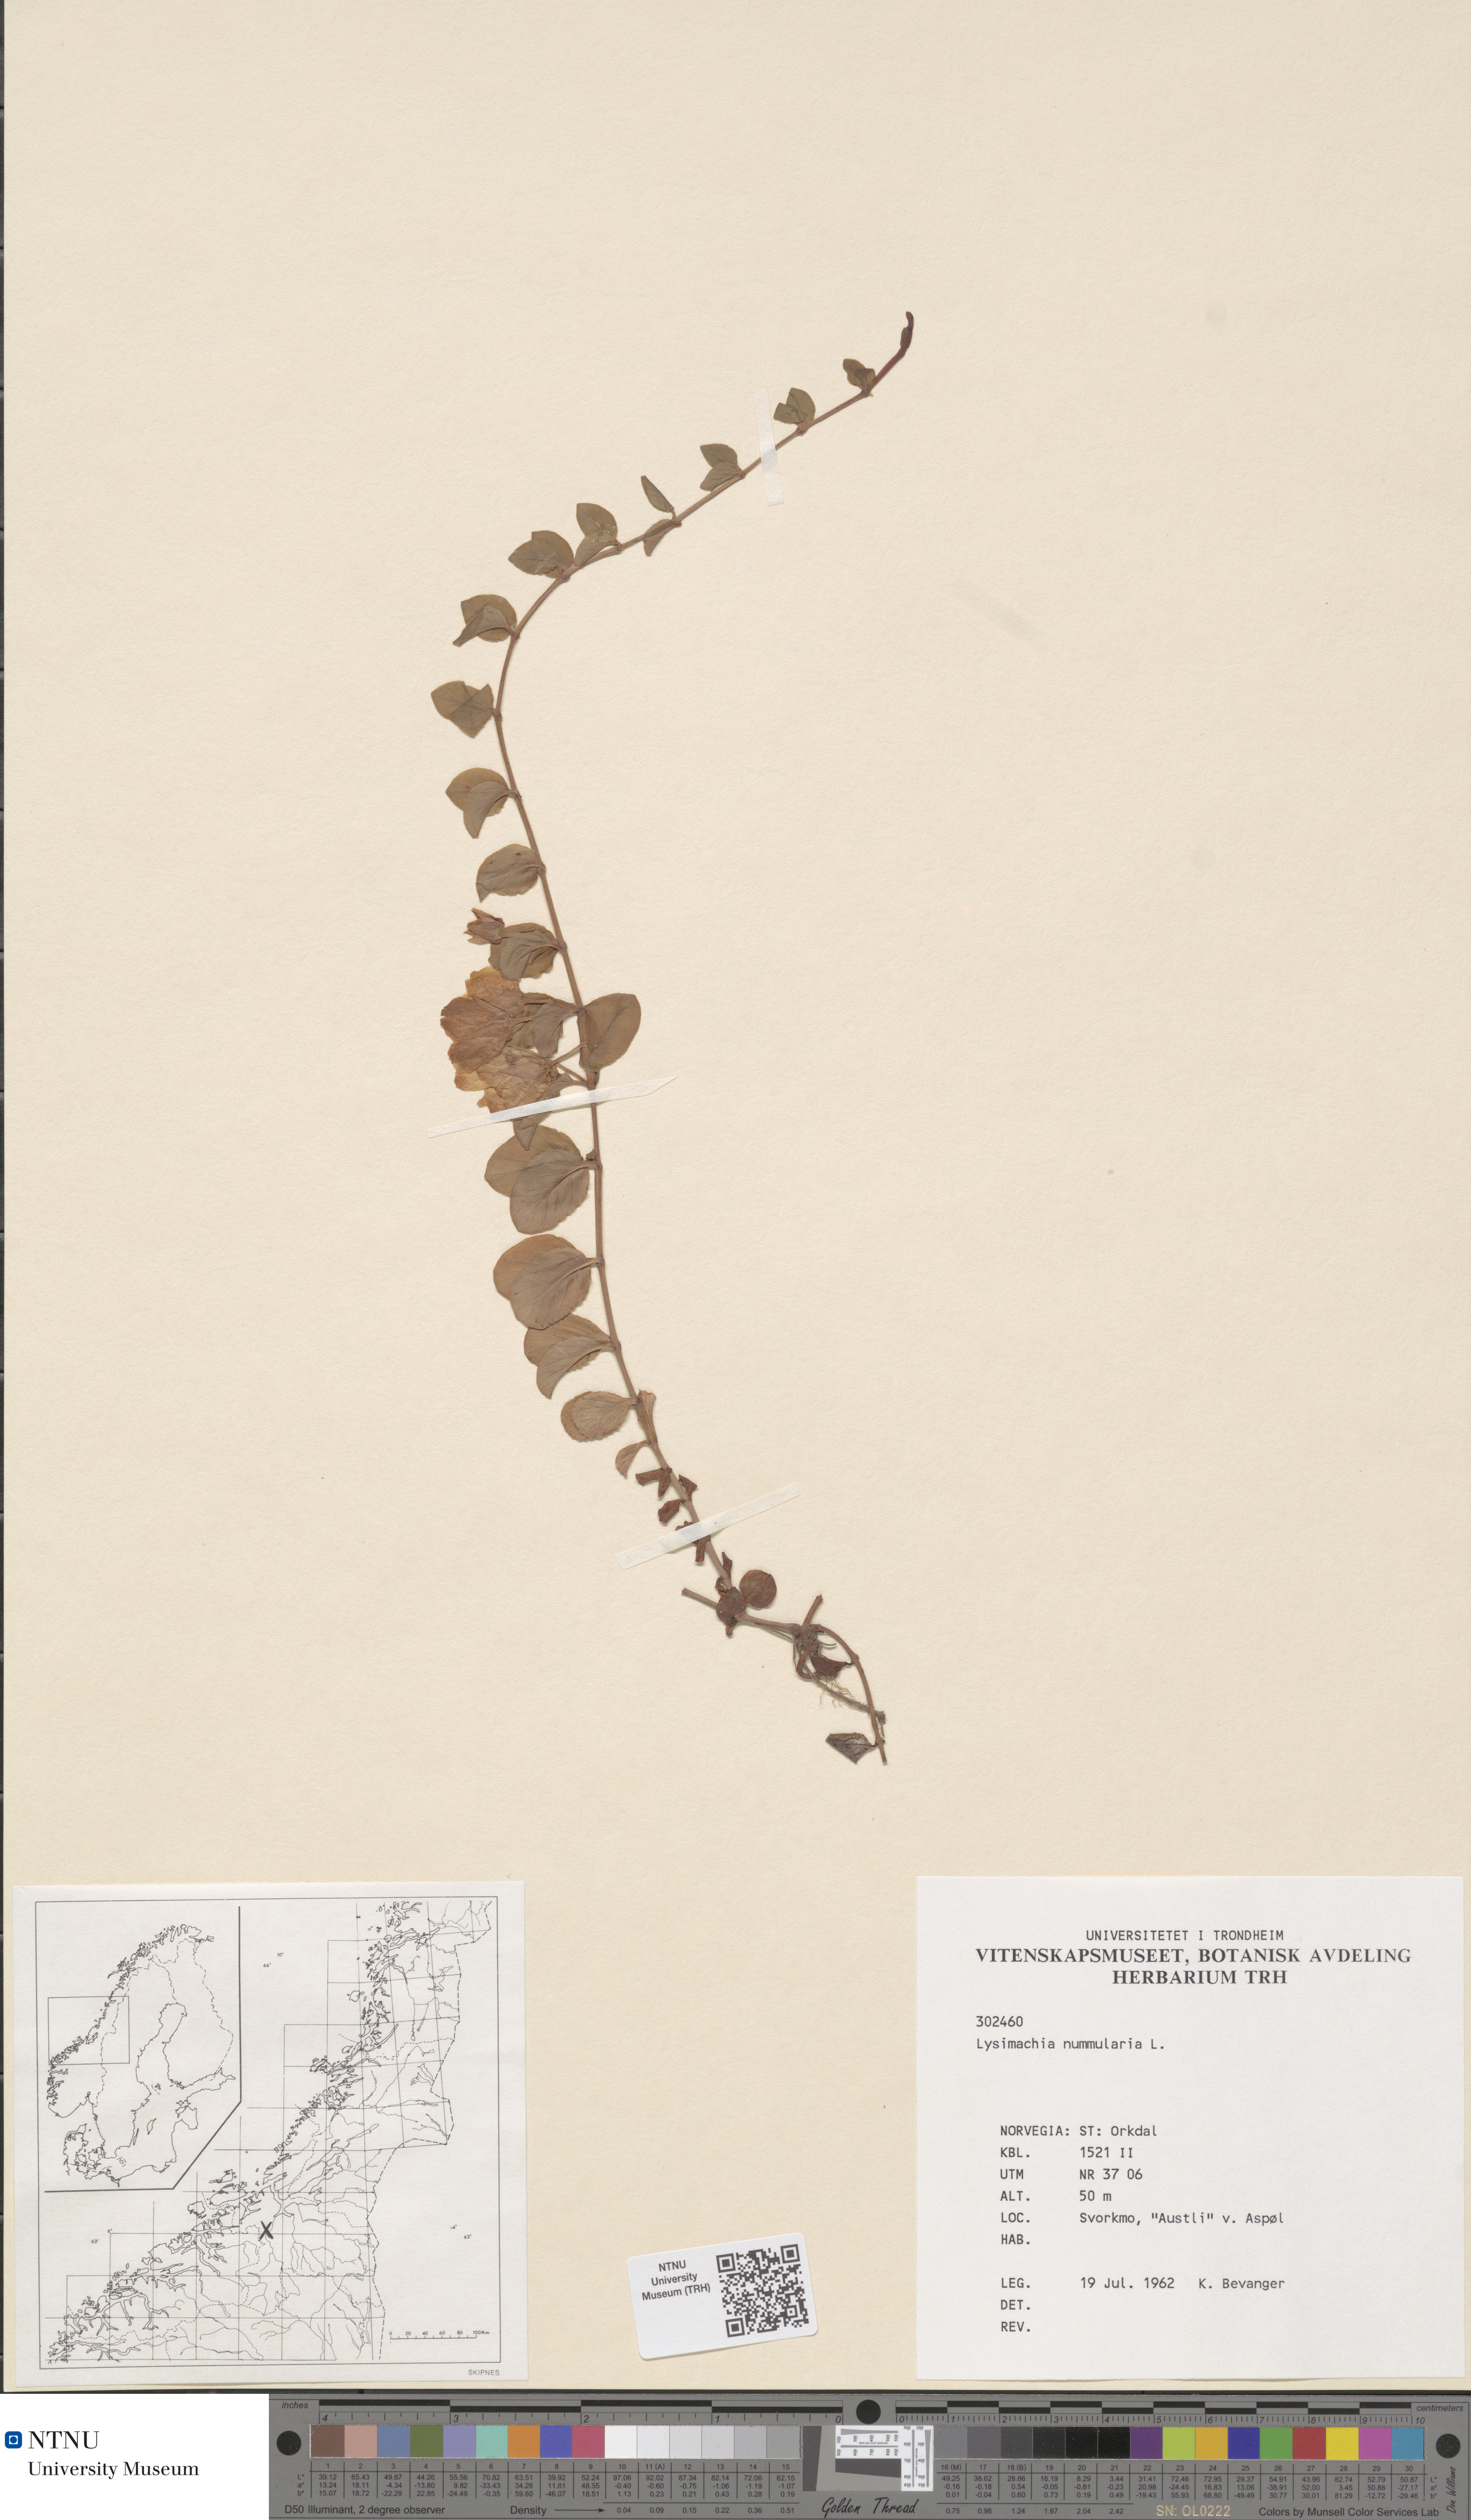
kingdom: Plantae
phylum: Tracheophyta
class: Magnoliopsida
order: Ericales
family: Primulaceae
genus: Lysimachia
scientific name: Lysimachia nummularia
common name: Moneywort
